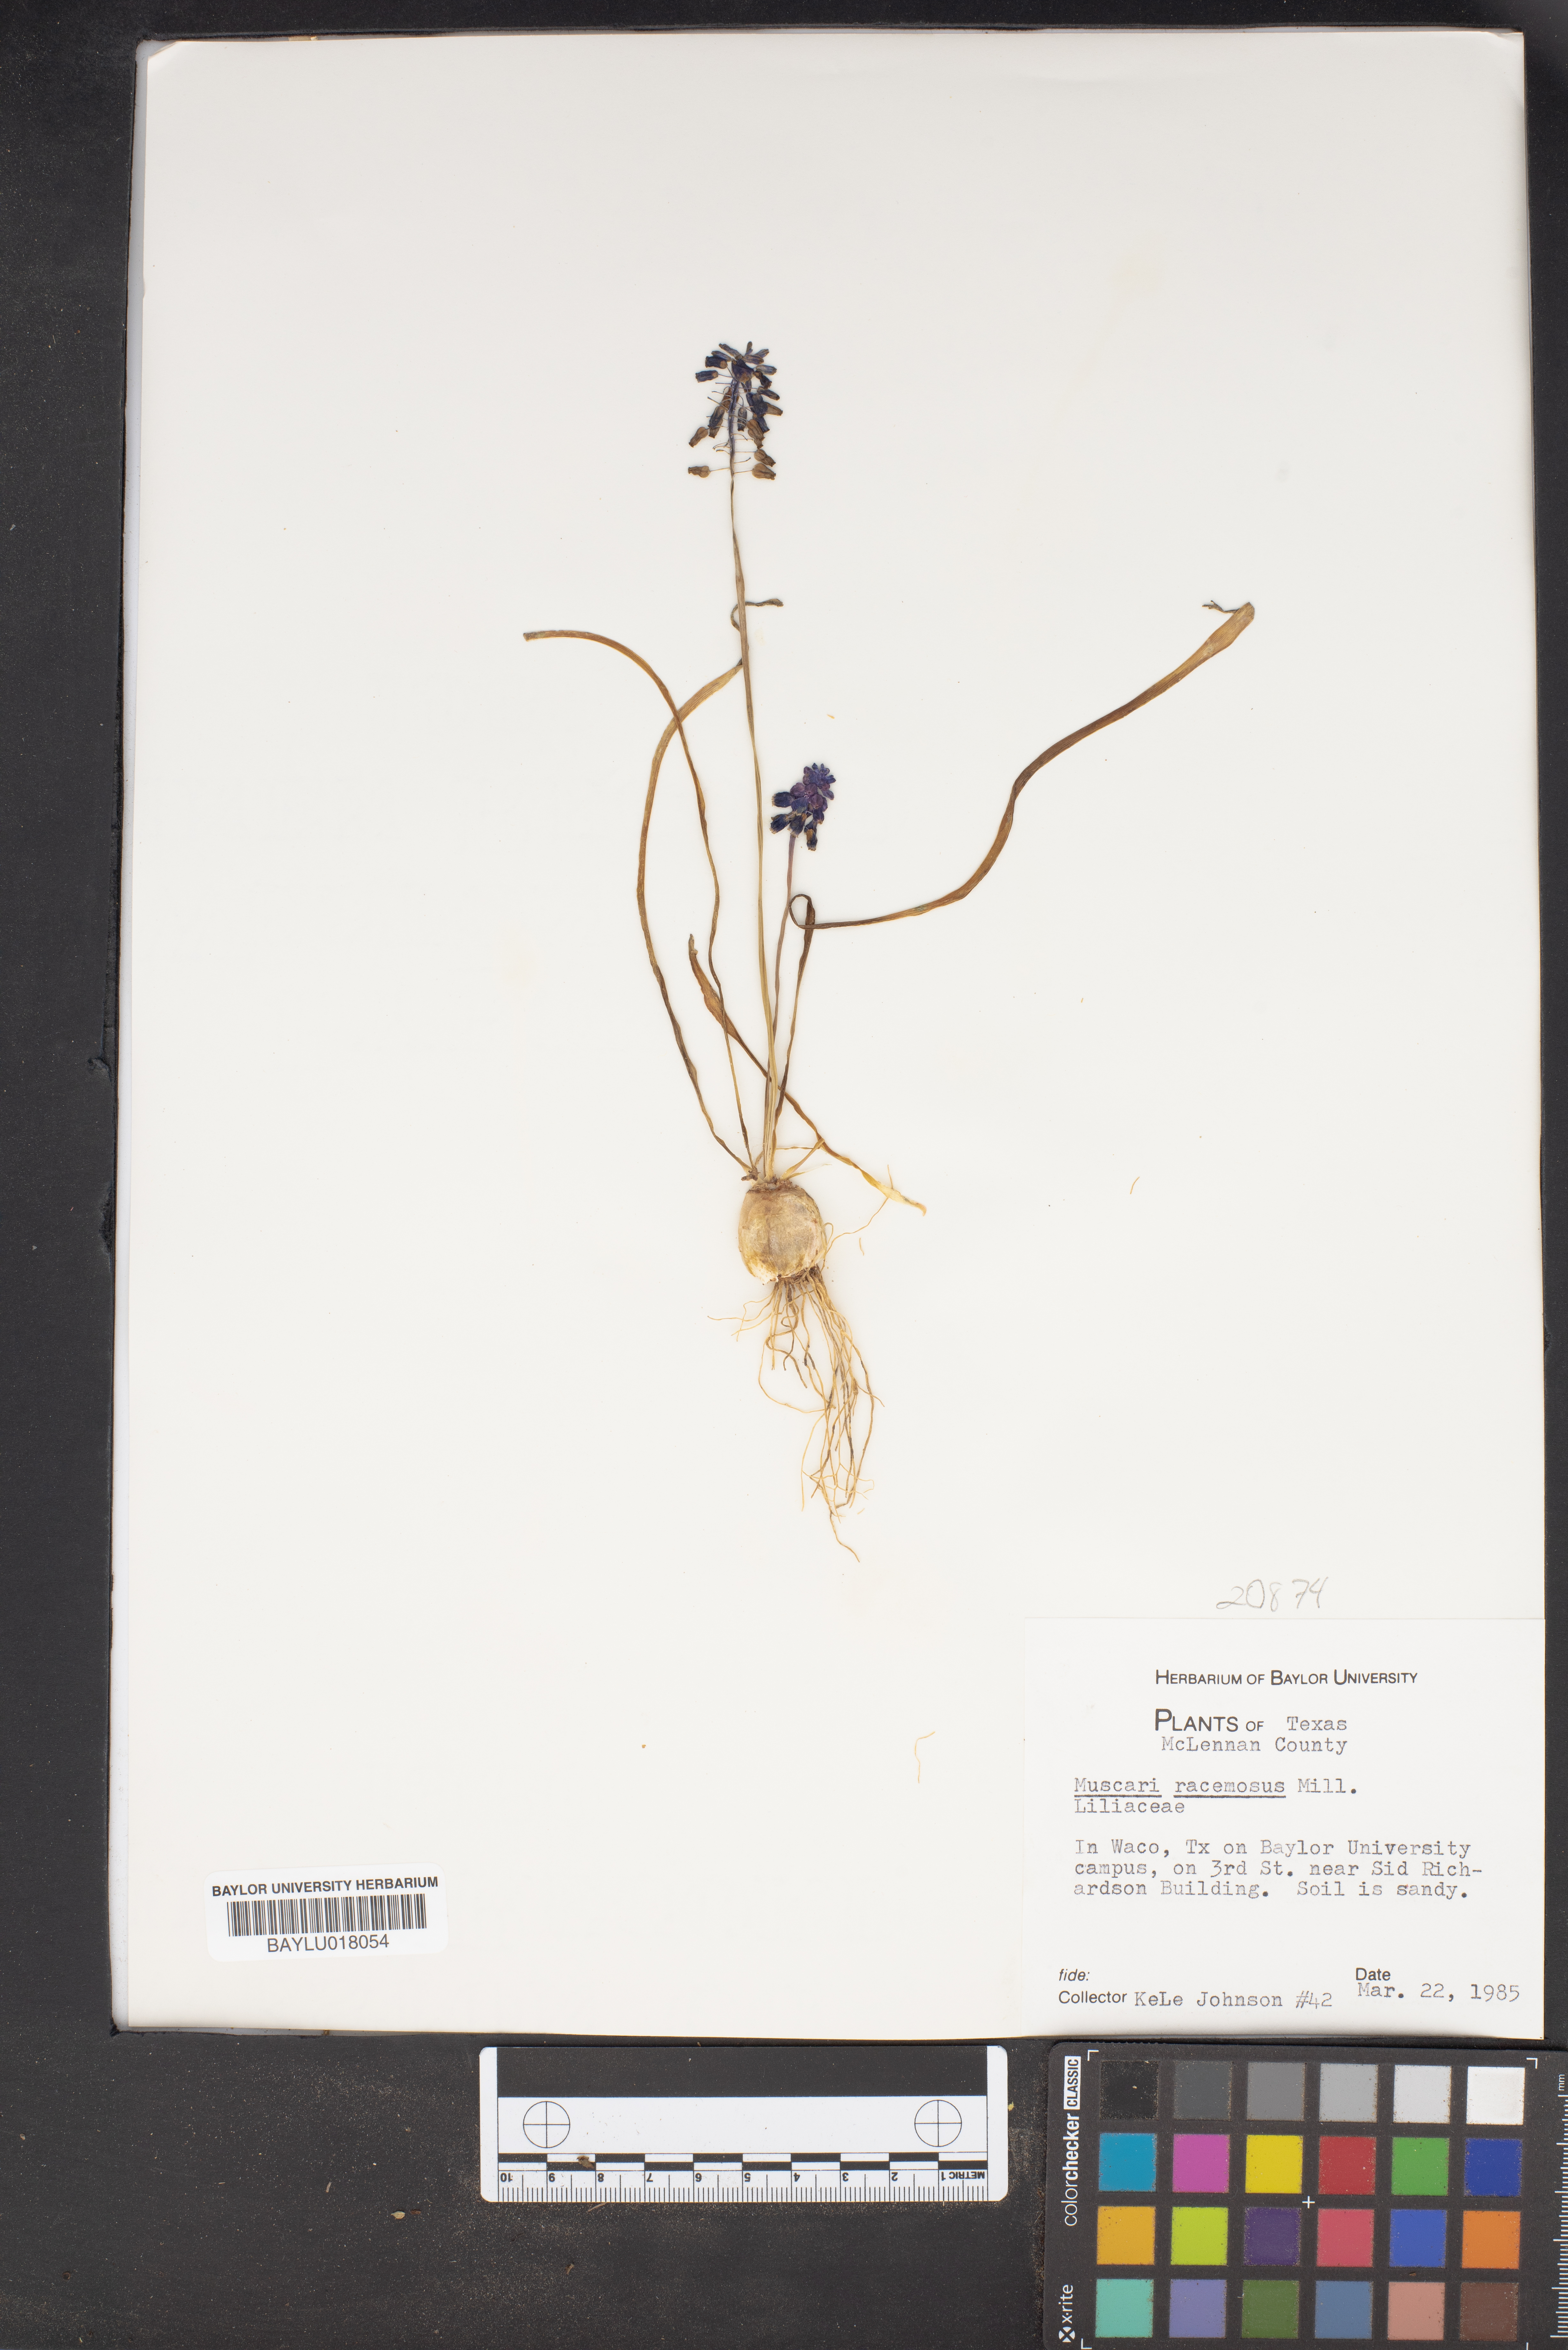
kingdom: Plantae
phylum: Tracheophyta
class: Liliopsida
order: Asparagales
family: Asparagaceae
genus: Muscarimia
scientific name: Muscarimia muscari
